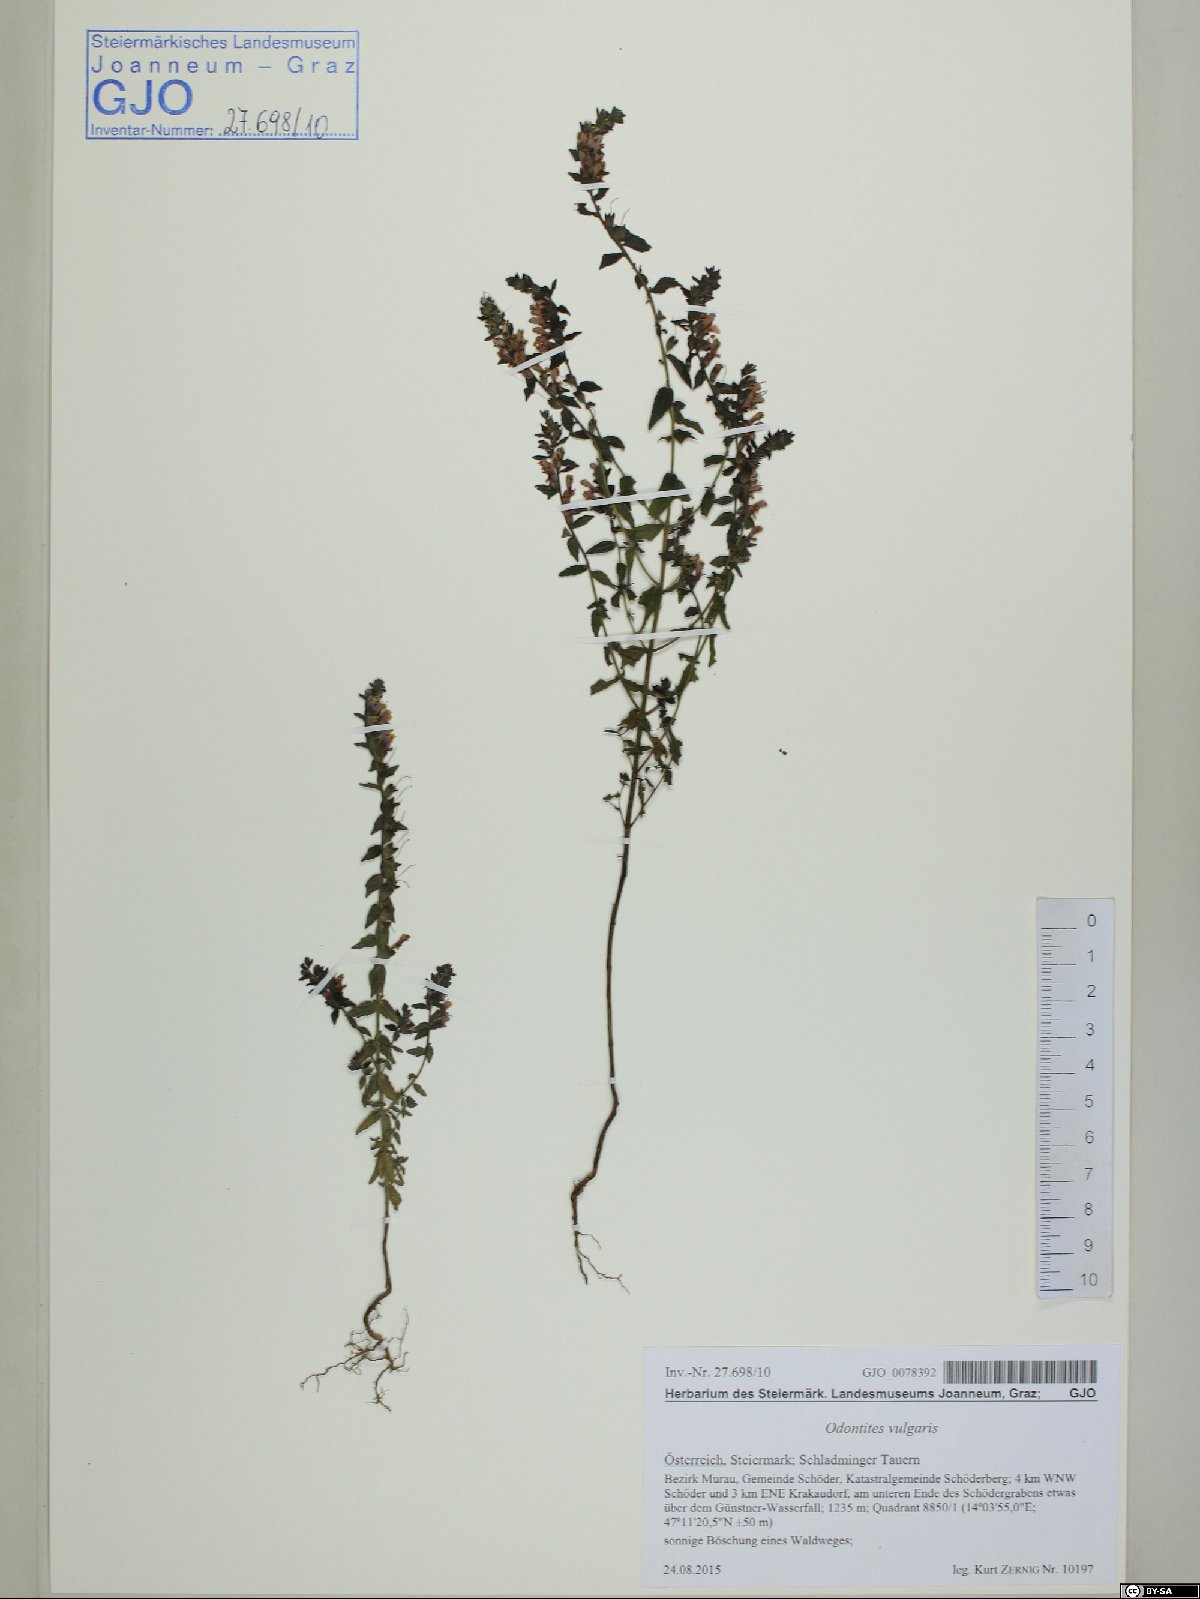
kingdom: Plantae
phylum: Tracheophyta
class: Magnoliopsida
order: Lamiales
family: Orobanchaceae
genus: Odontites
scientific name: Odontites vulgaris
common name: Broomrape
